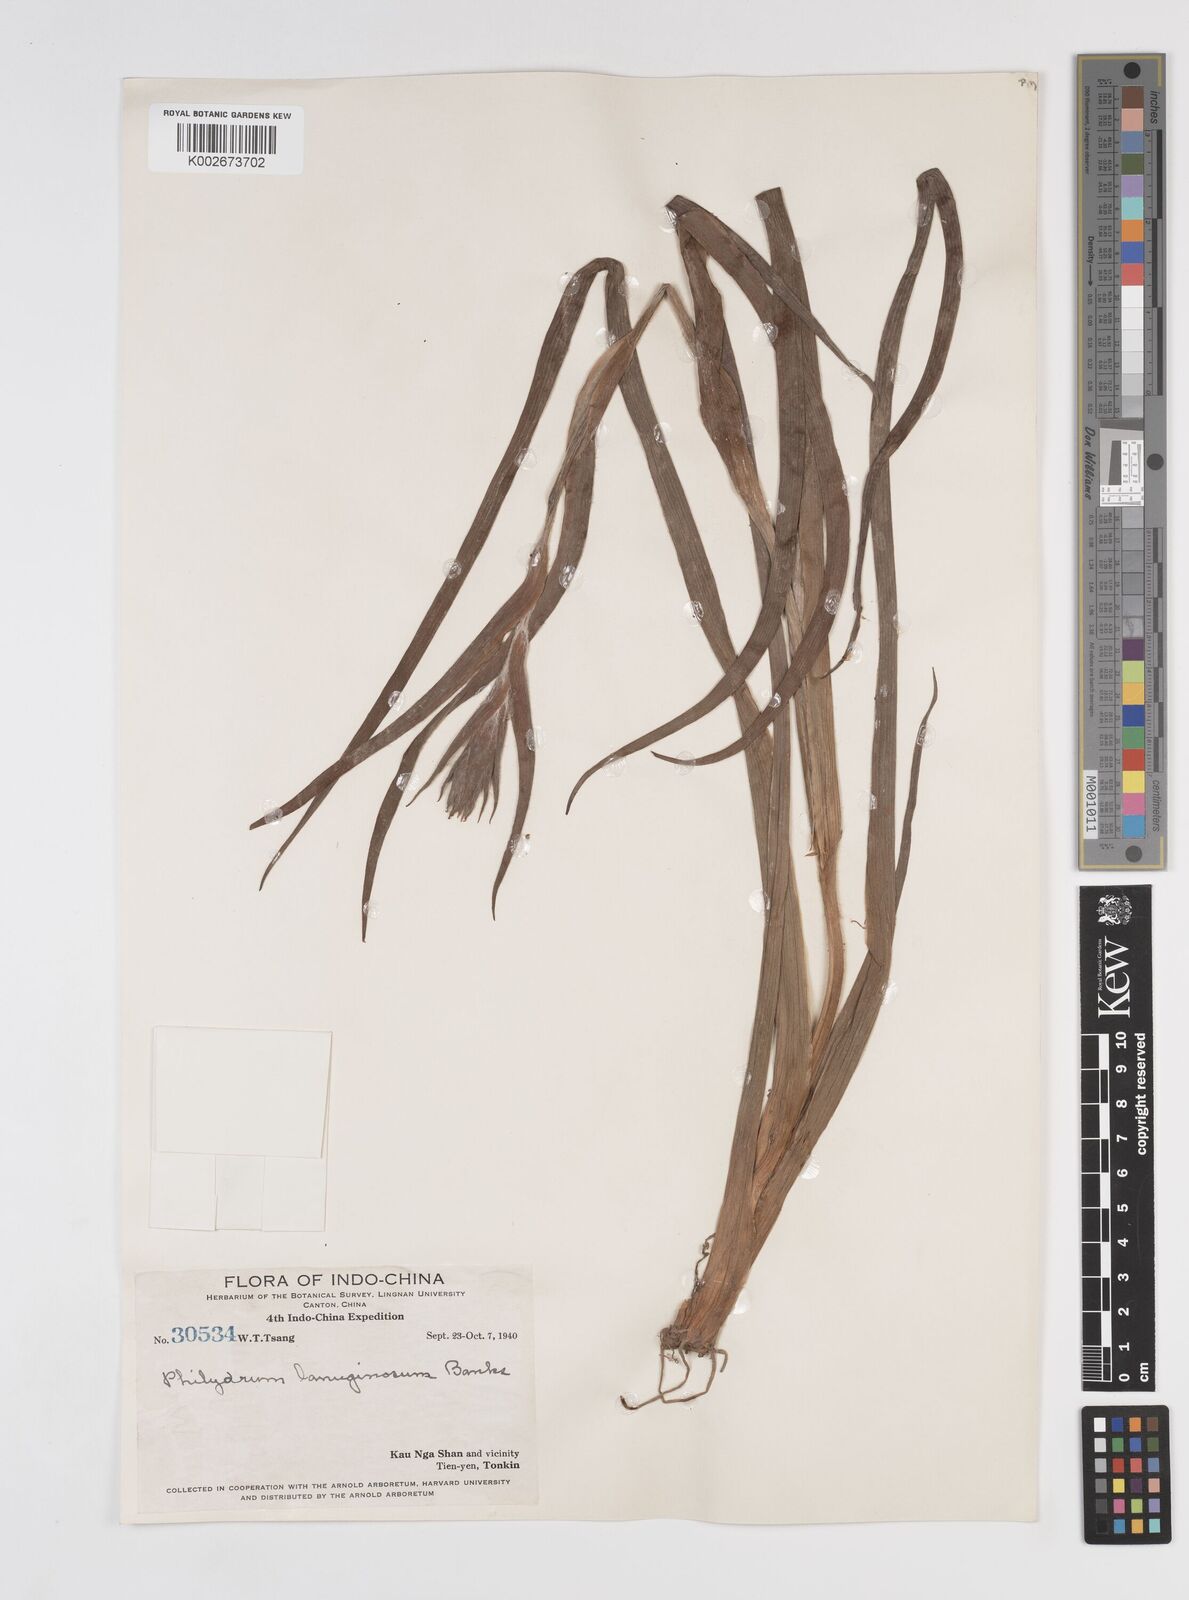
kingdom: Plantae
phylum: Tracheophyta
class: Liliopsida
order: Commelinales
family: Philydraceae
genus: Philydrum
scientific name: Philydrum lanuginosum
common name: Woolly frog's mouth
